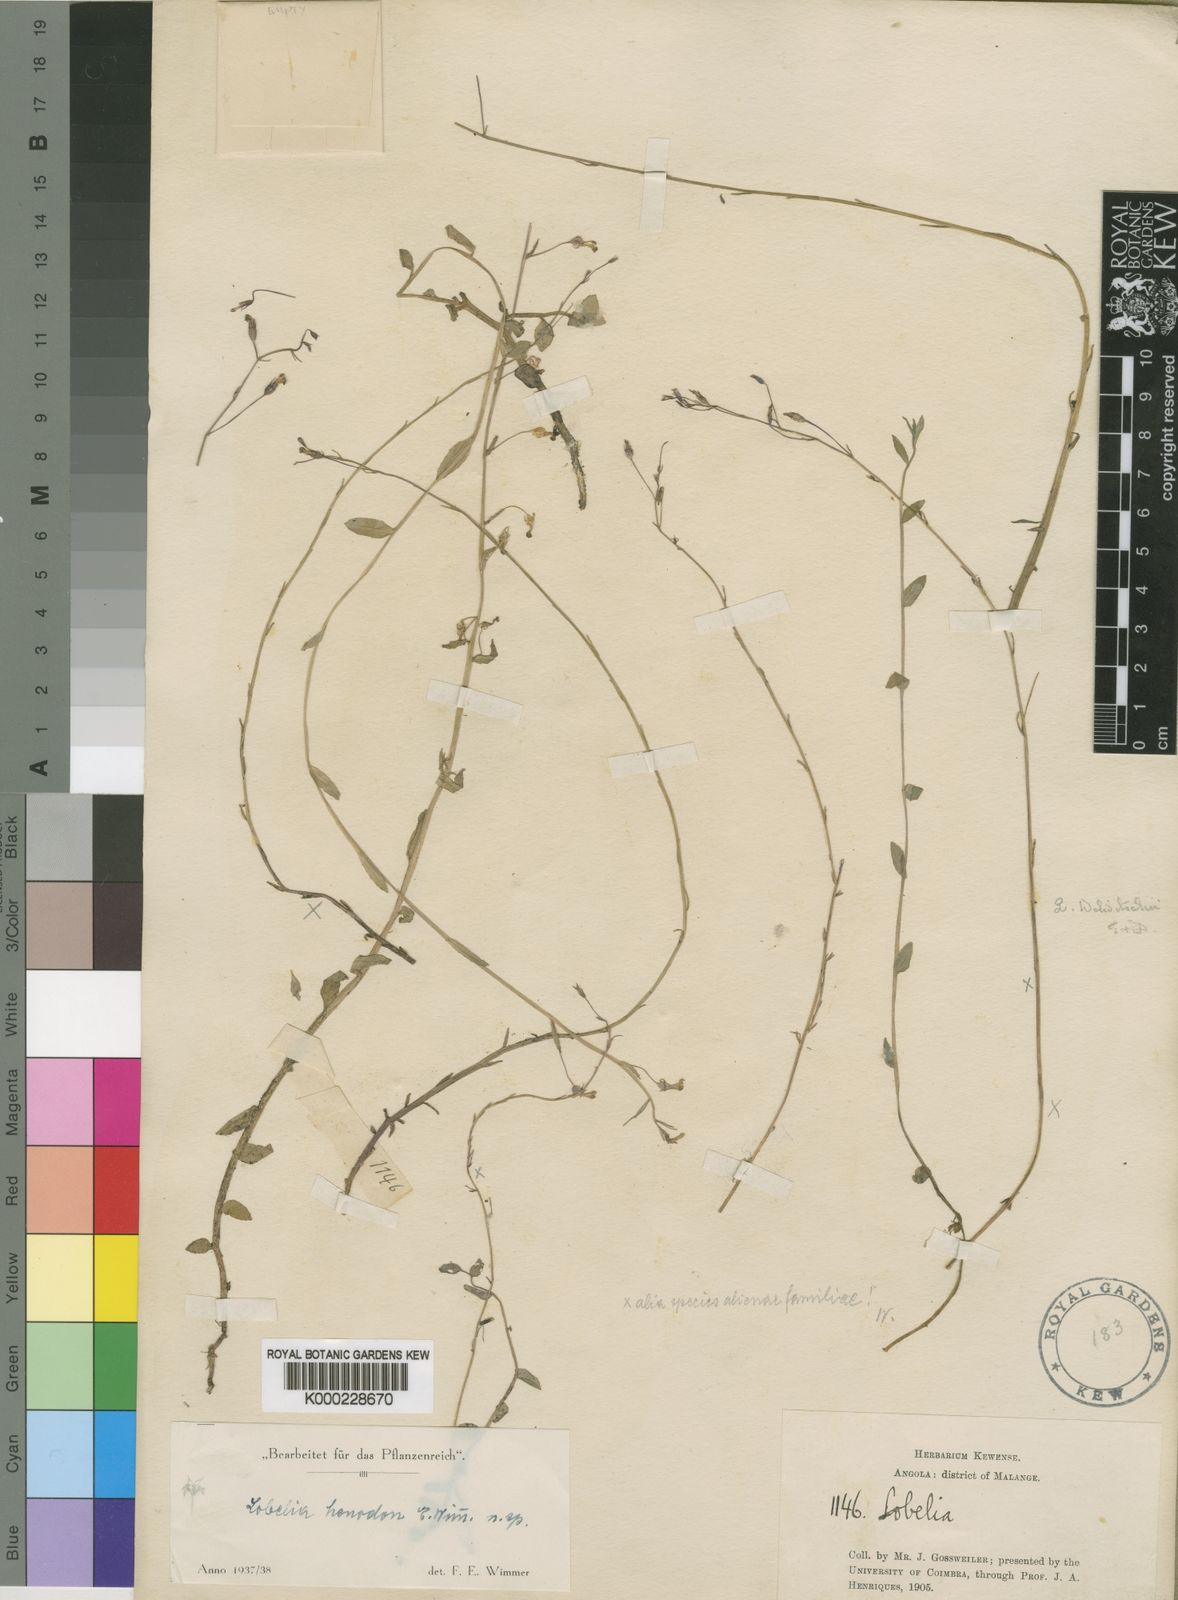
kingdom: Plantae
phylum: Tracheophyta
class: Magnoliopsida
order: Asterales
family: Campanulaceae
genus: Lobelia
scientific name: Lobelia henodon
